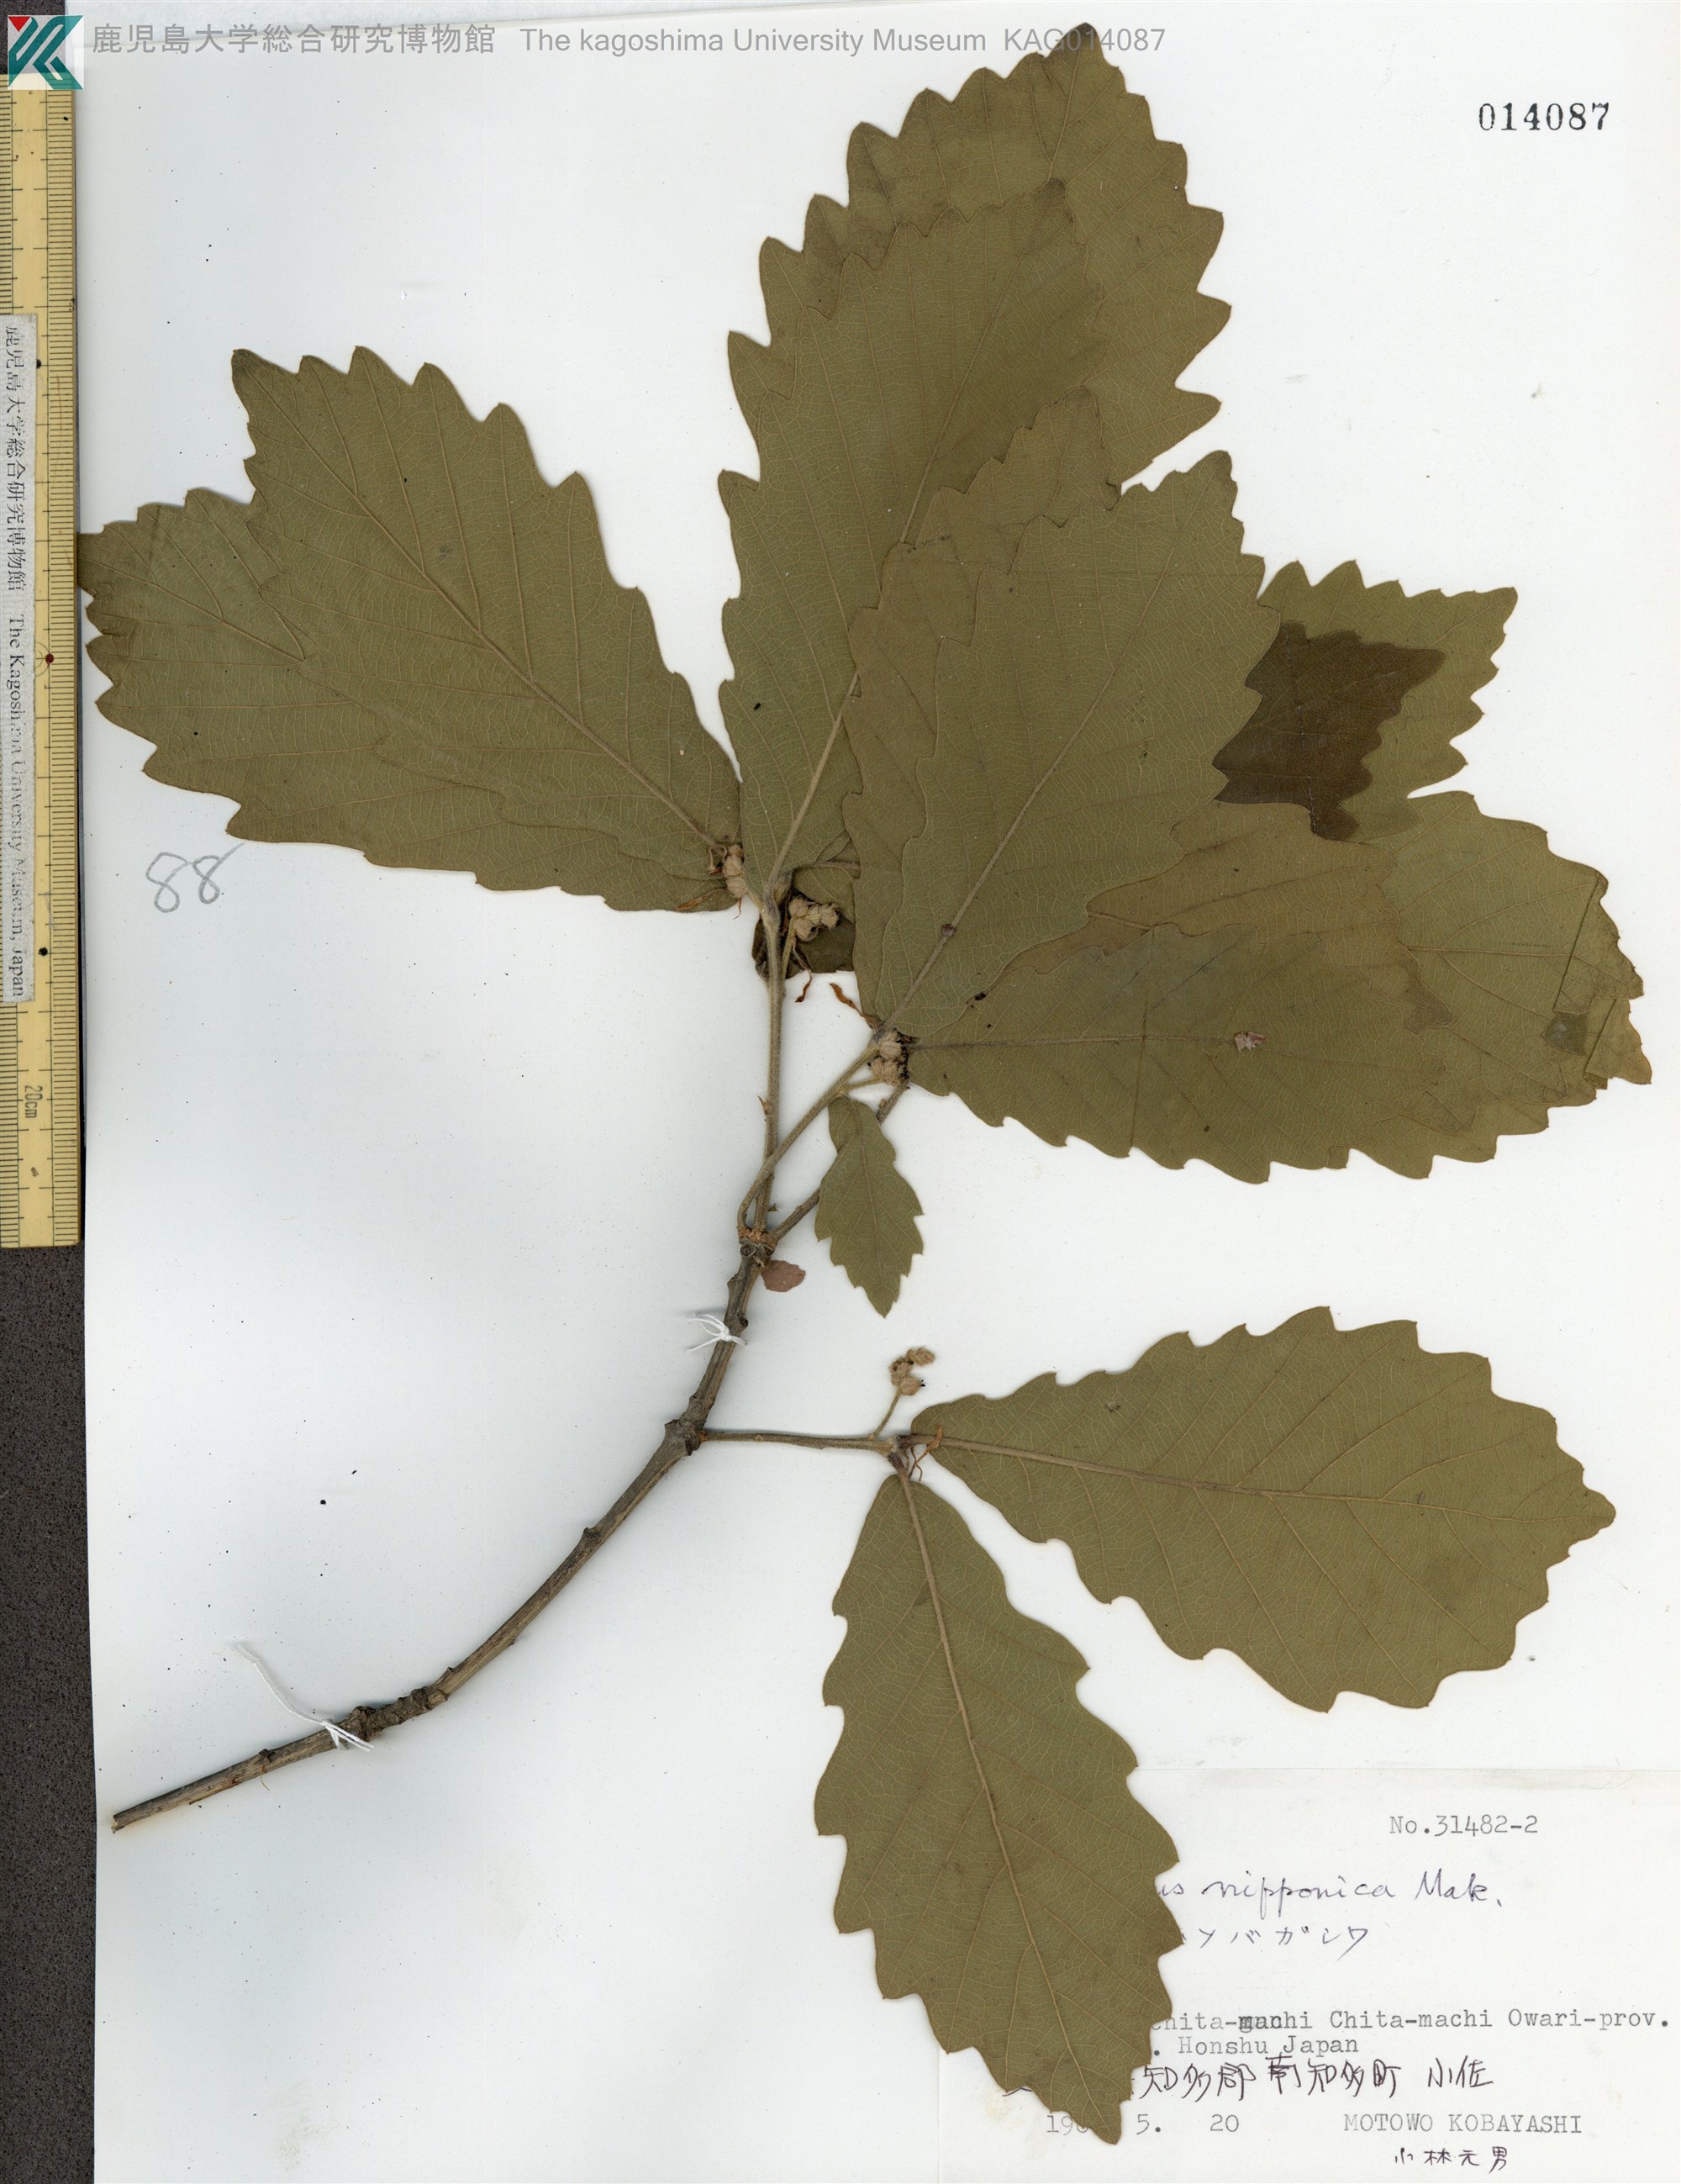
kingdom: Plantae
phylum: Tracheophyta
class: Magnoliopsida
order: Fagales
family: Fagaceae
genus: Quercus
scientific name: Quercus nipponica
